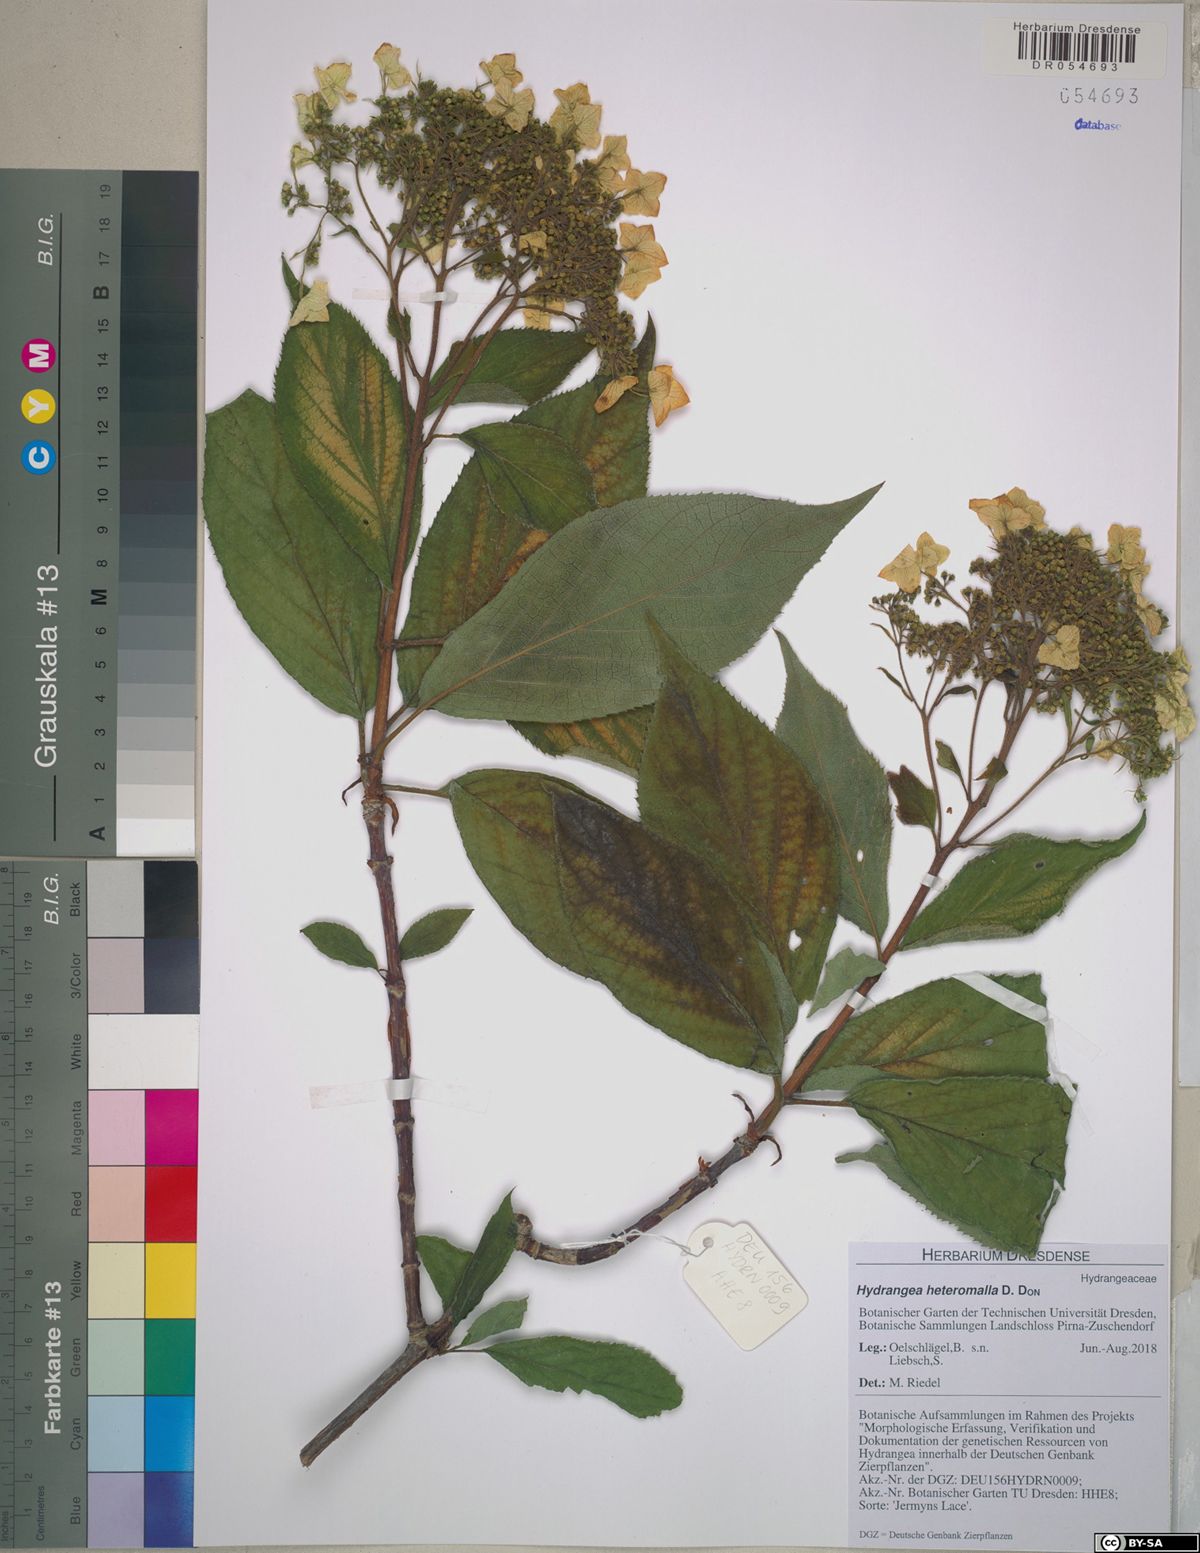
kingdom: Plantae
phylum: Tracheophyta
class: Magnoliopsida
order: Cornales
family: Hydrangeaceae
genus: Hydrangea
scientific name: Hydrangea heteromalla
